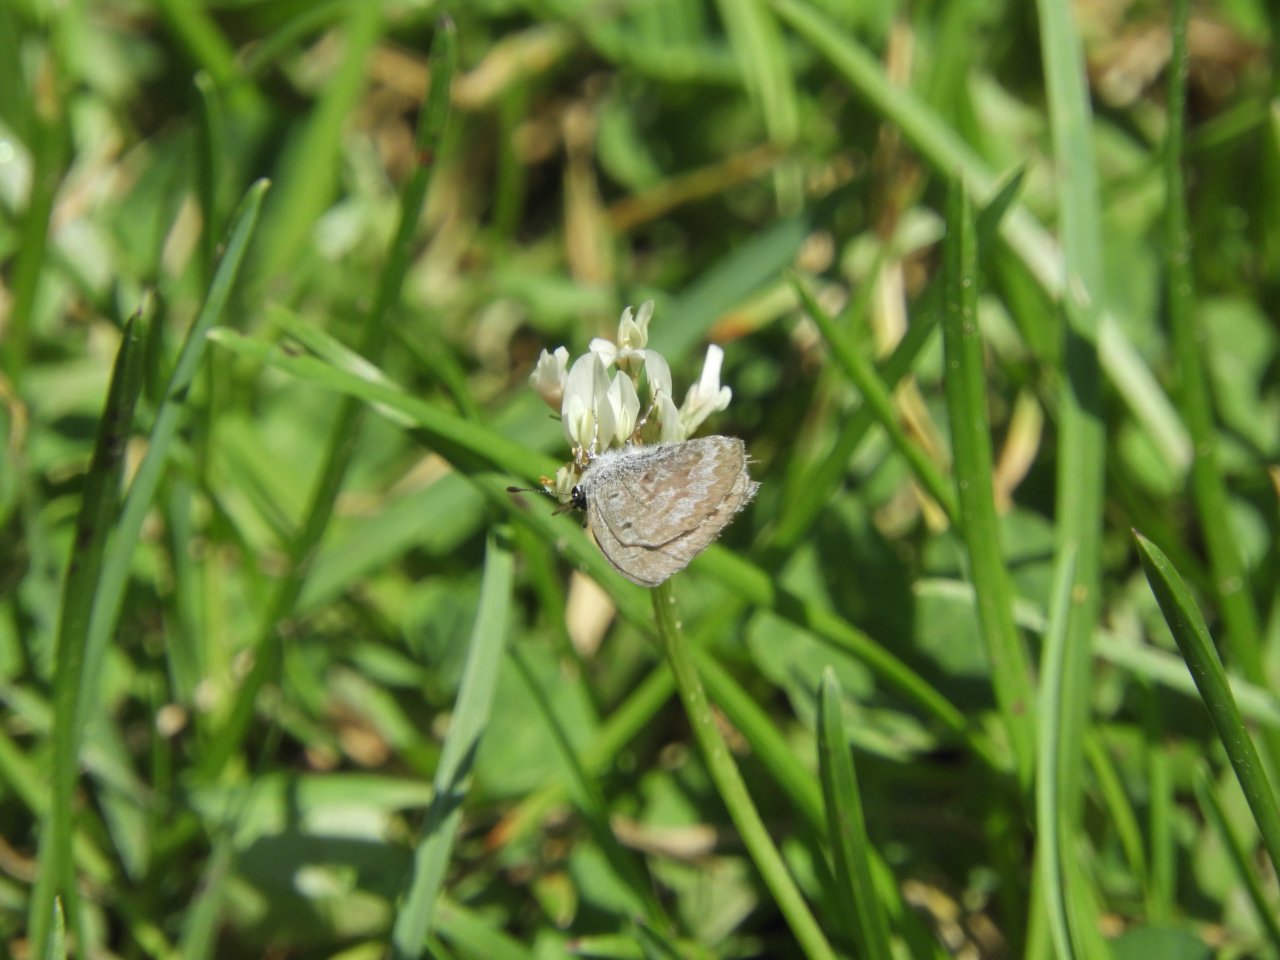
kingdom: Animalia
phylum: Arthropoda
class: Insecta
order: Lepidoptera
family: Lycaenidae
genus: Celastrina
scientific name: Celastrina lucia
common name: Northern Spring Azure
